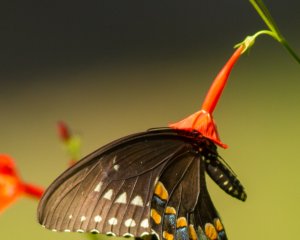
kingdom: Animalia
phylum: Arthropoda
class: Insecta
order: Lepidoptera
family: Papilionidae
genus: Pterourus
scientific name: Pterourus troilus
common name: Spicebush Swallowtail
